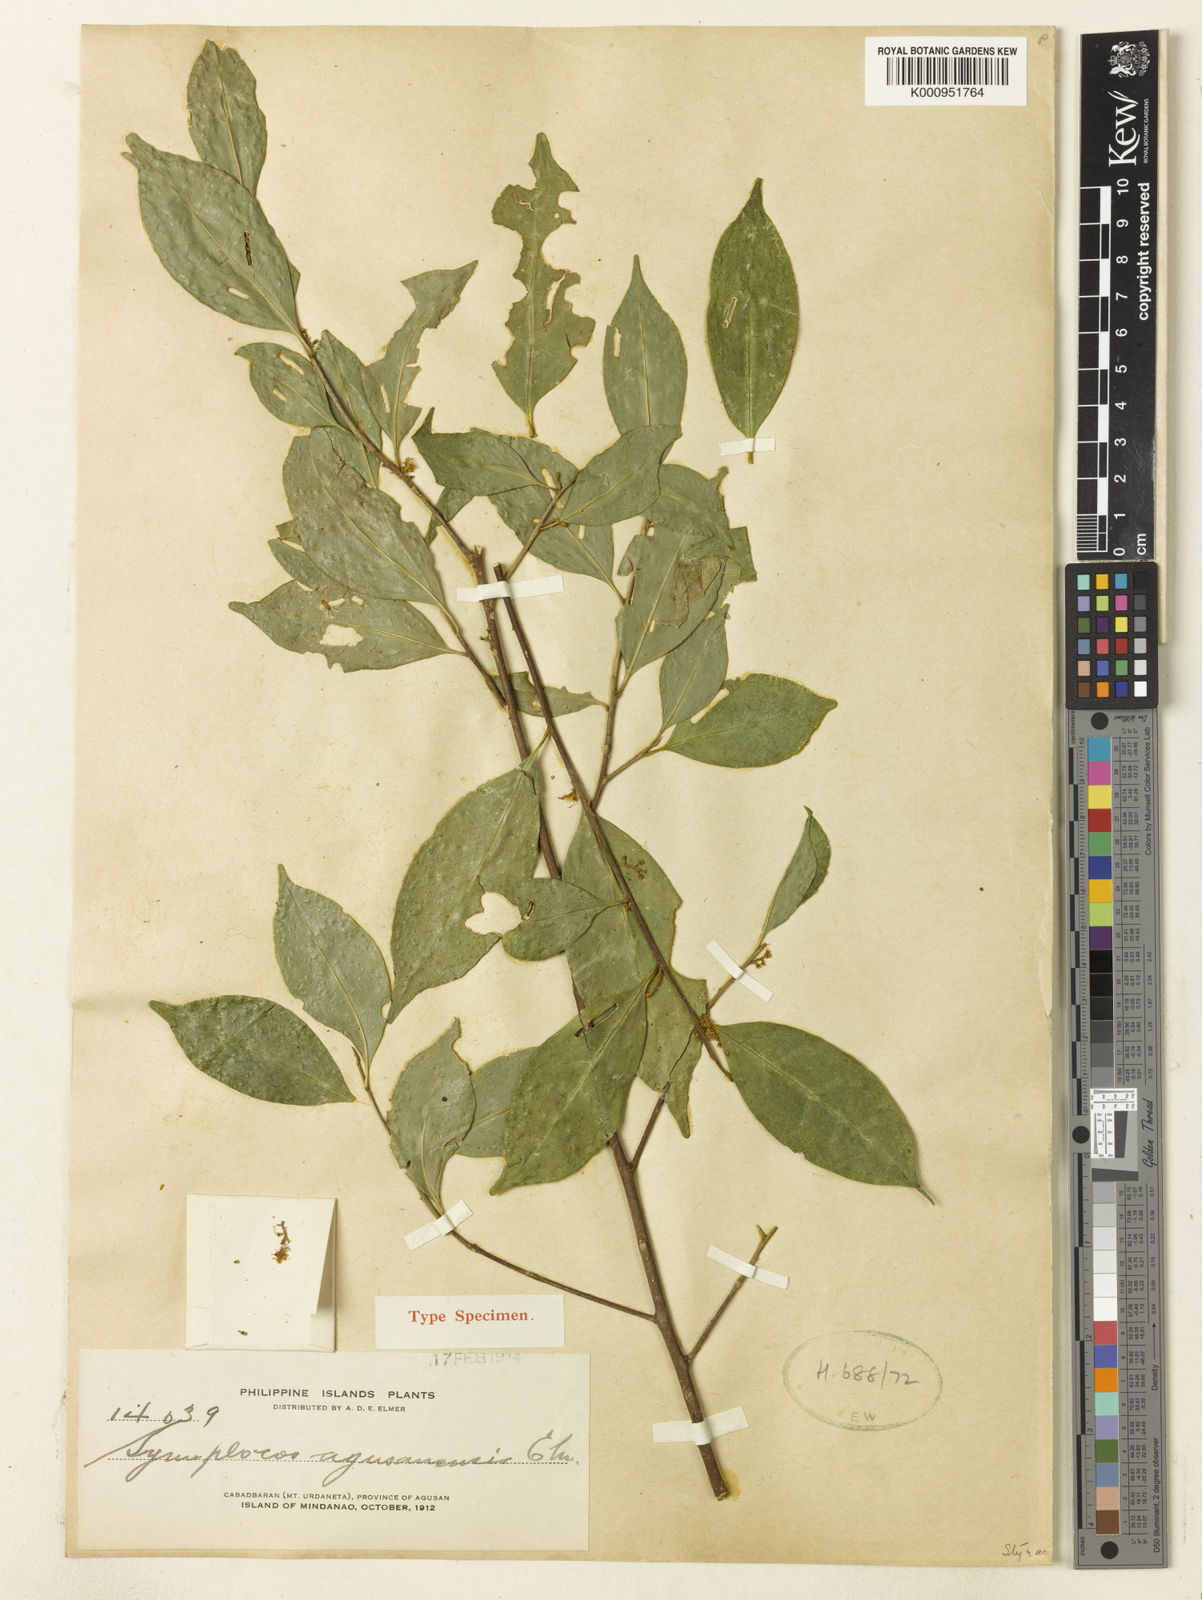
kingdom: Plantae
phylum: Tracheophyta
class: Magnoliopsida
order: Ericales
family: Symplocaceae
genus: Symplocos
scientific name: Symplocos ophirensis
